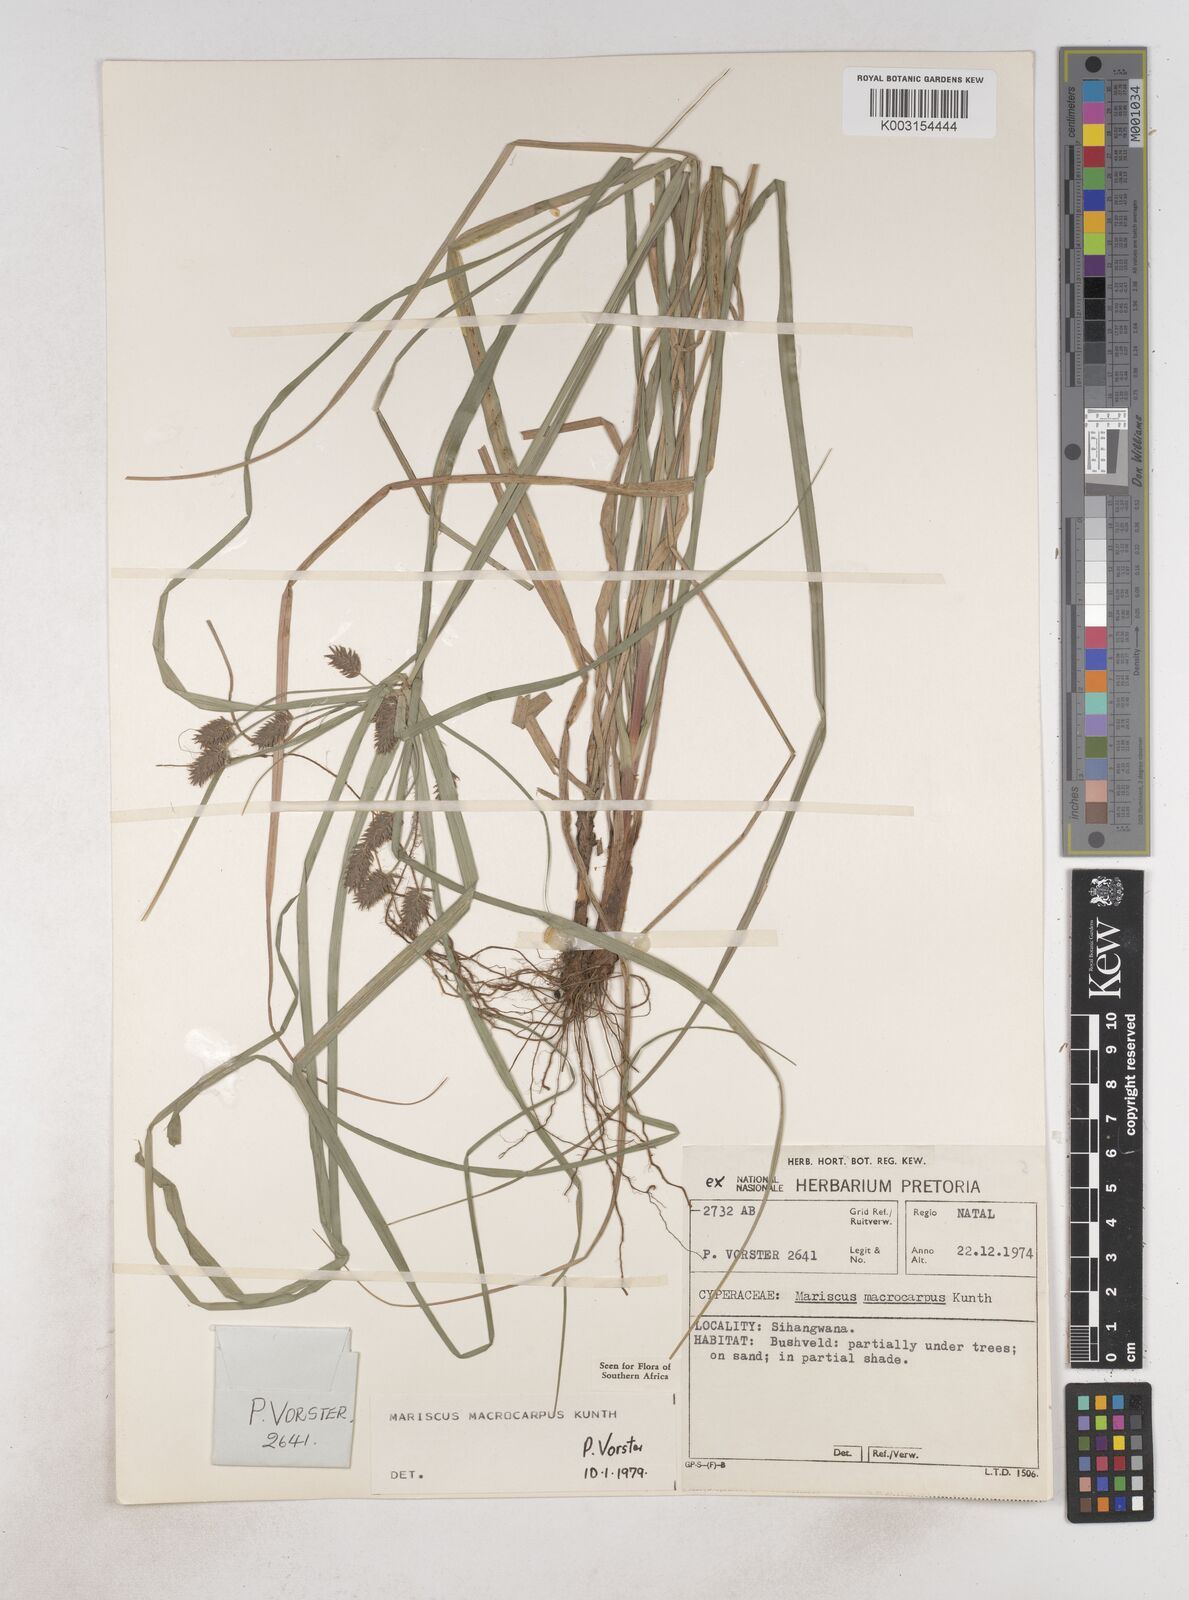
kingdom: Plantae
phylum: Tracheophyta
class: Liliopsida
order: Poales
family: Cyperaceae
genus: Cyperus
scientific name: Cyperus macrocarpus
